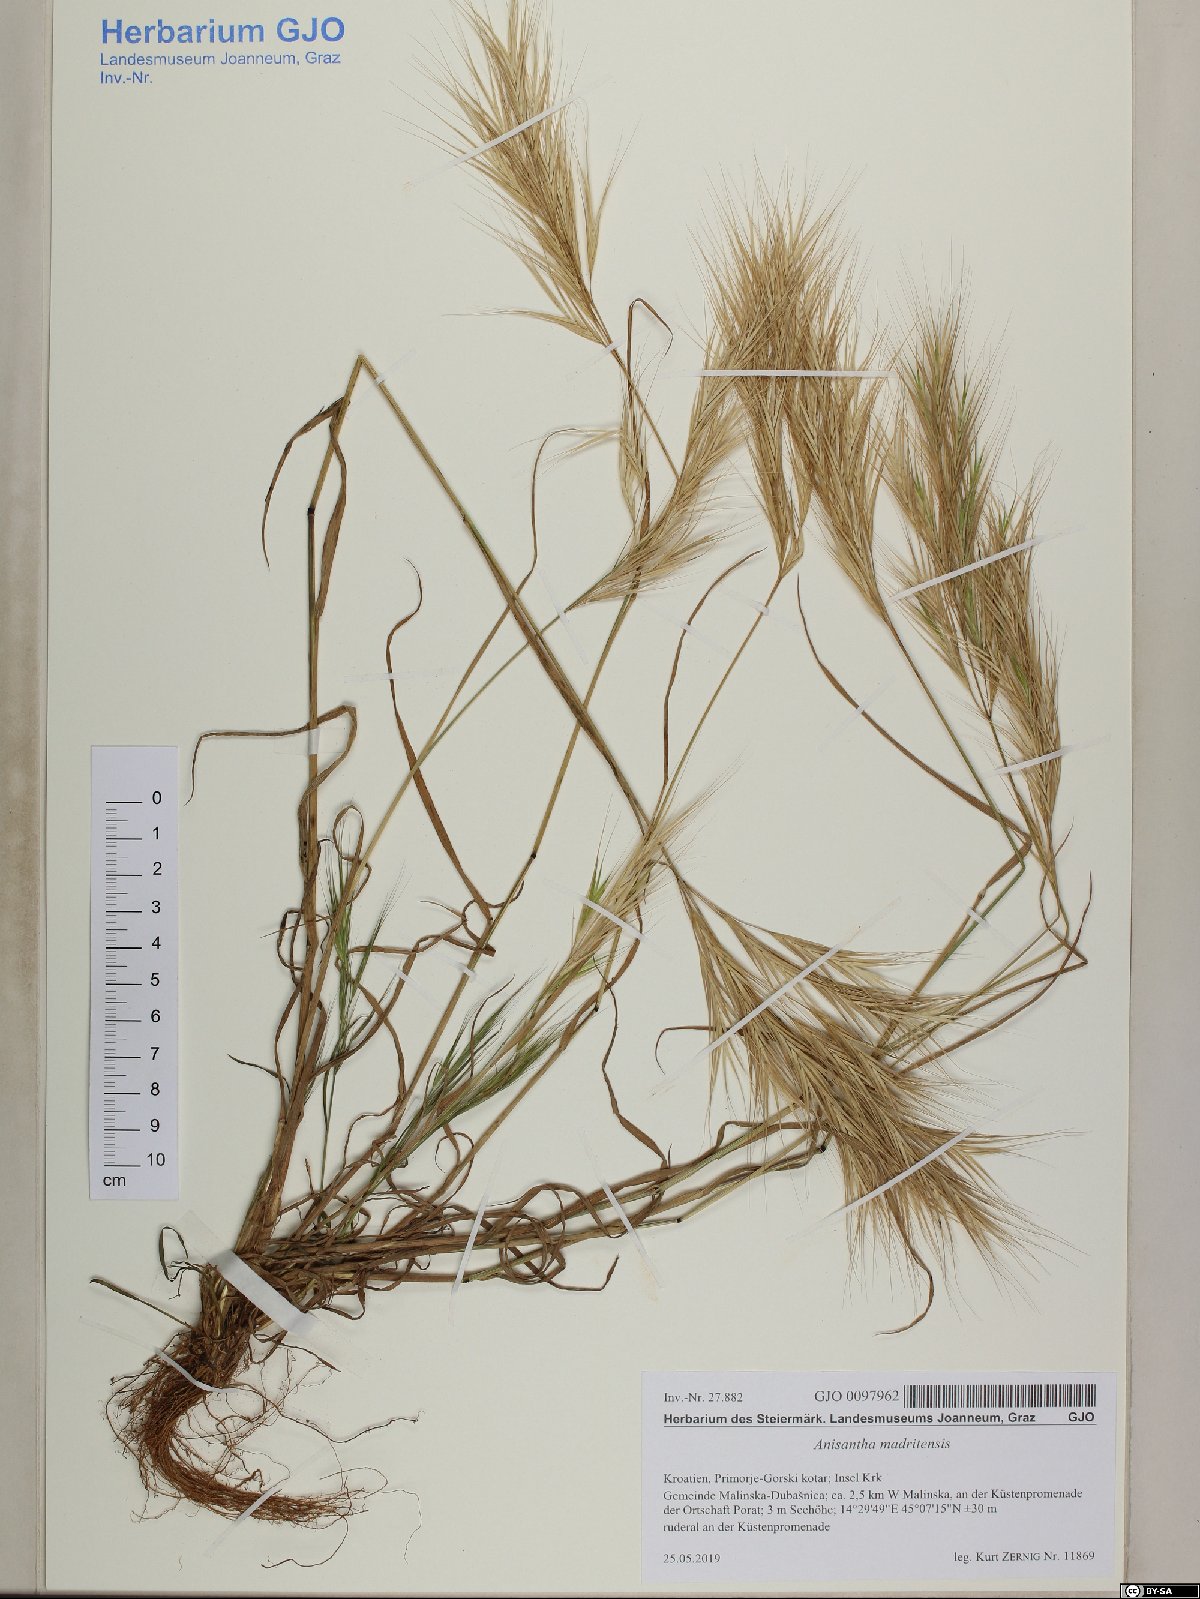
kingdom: Plantae
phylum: Tracheophyta
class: Liliopsida
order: Poales
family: Poaceae
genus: Bromus
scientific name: Bromus madritensis
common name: Compact brome
